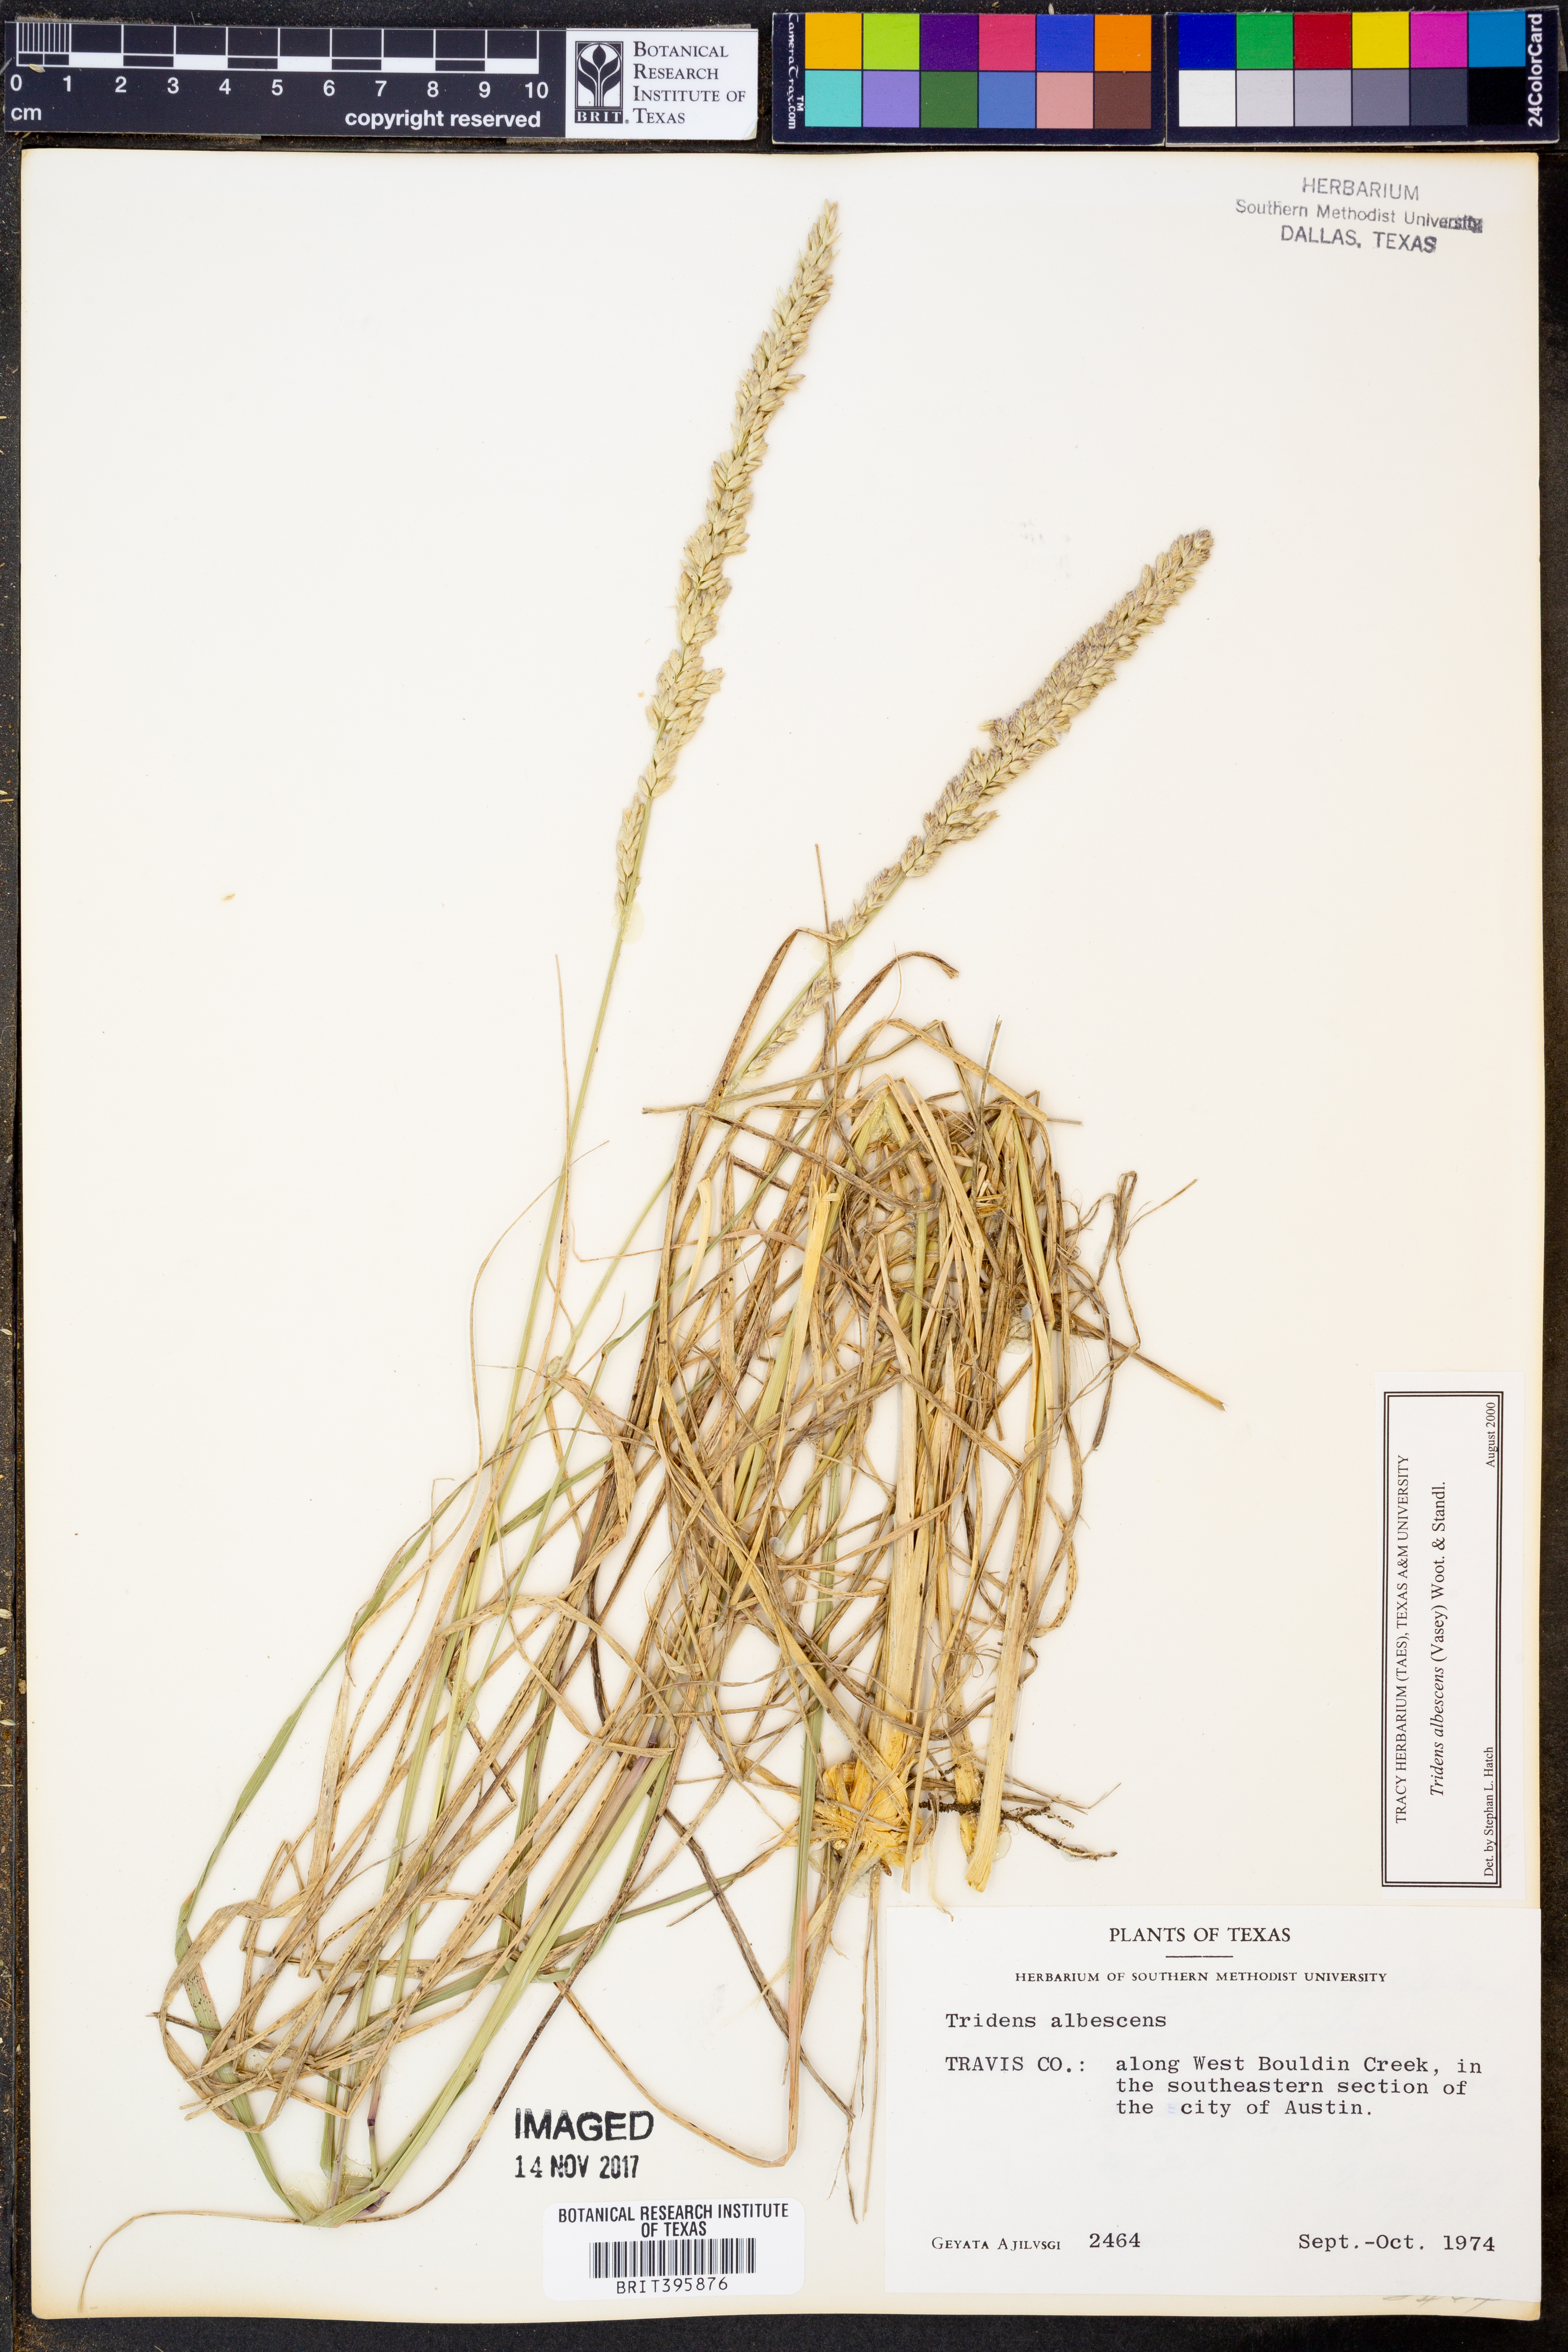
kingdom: Plantae
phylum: Tracheophyta
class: Liliopsida
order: Poales
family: Poaceae
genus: Tridens
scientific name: Tridens albescens
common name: White tridens
